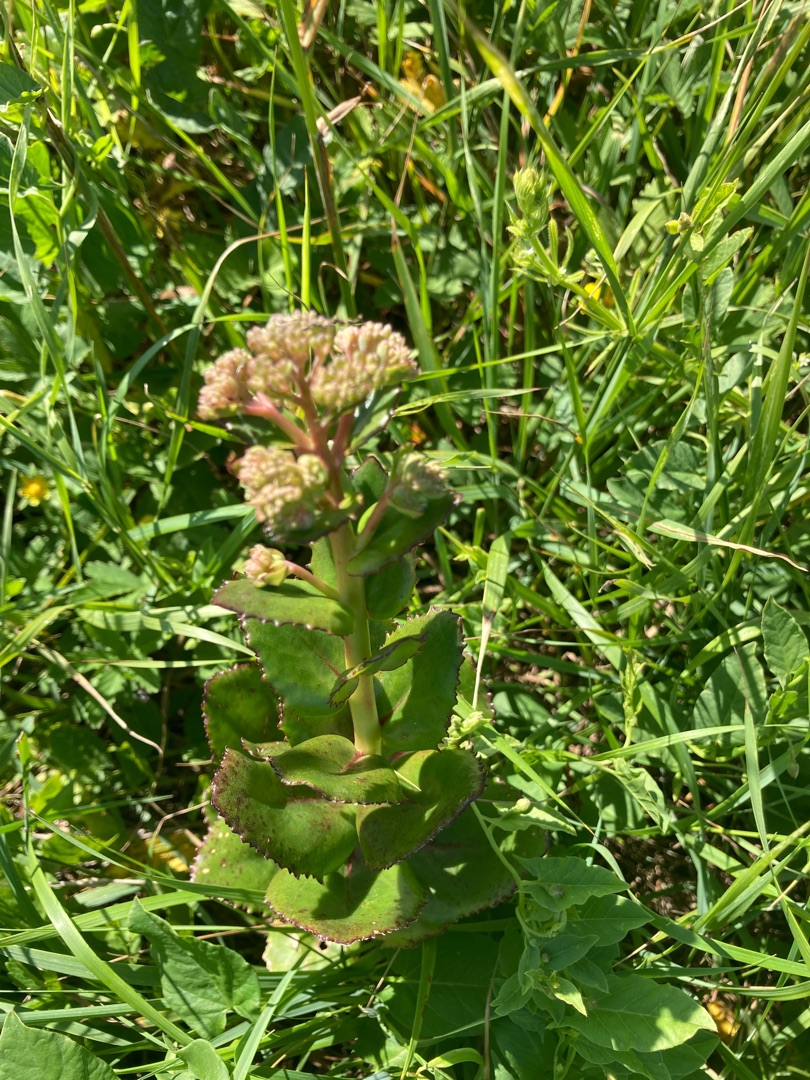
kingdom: Plantae
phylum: Tracheophyta
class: Magnoliopsida
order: Saxifragales
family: Crassulaceae
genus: Hylotelephium
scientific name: Hylotelephium telephium
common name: Rød sankthansurt
